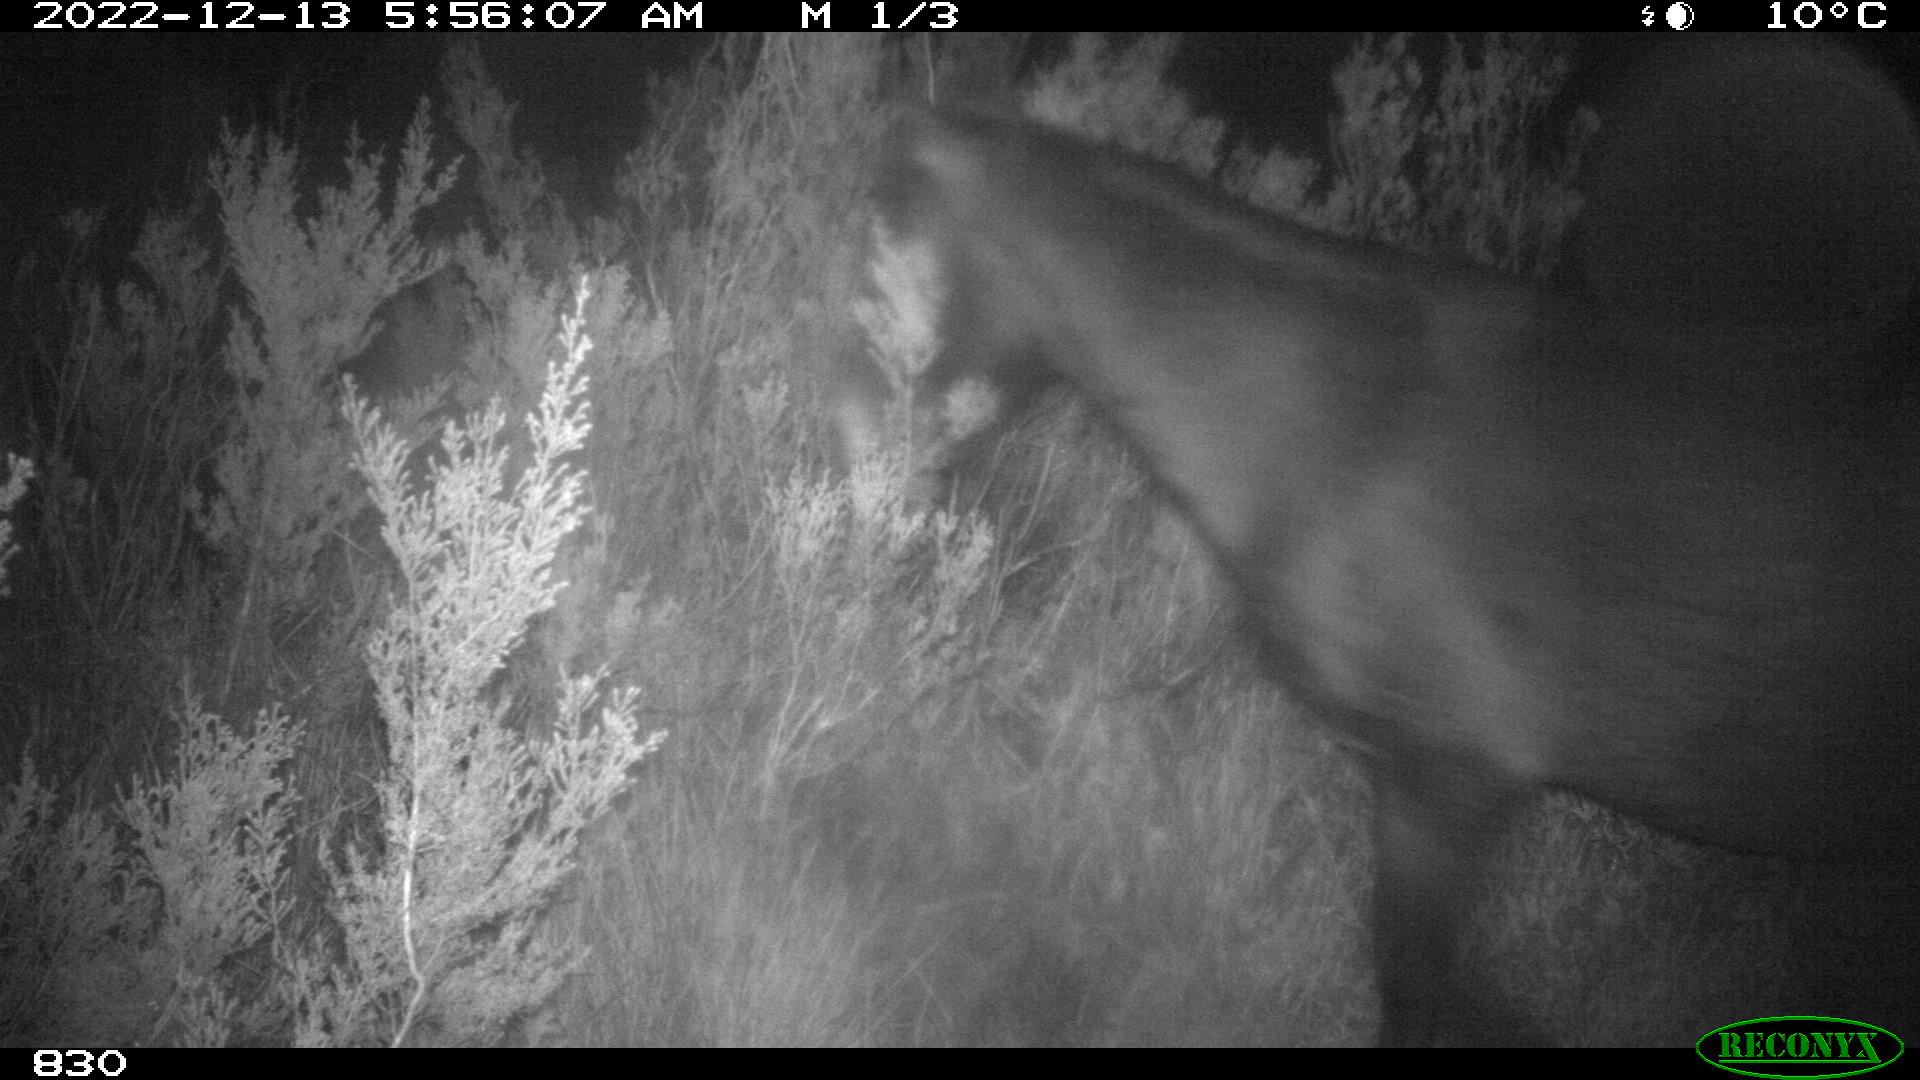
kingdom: Animalia
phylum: Chordata
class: Mammalia
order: Perissodactyla
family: Equidae
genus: Equus
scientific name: Equus caballus
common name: Horse
